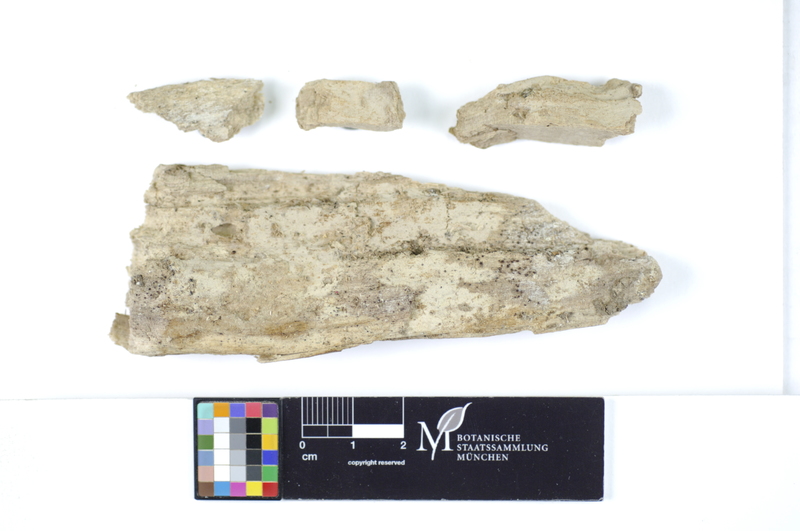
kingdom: Plantae
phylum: Tracheophyta
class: Magnoliopsida
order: Malpighiales
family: Salicaceae
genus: Salix
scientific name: Salix alba
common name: White willow
